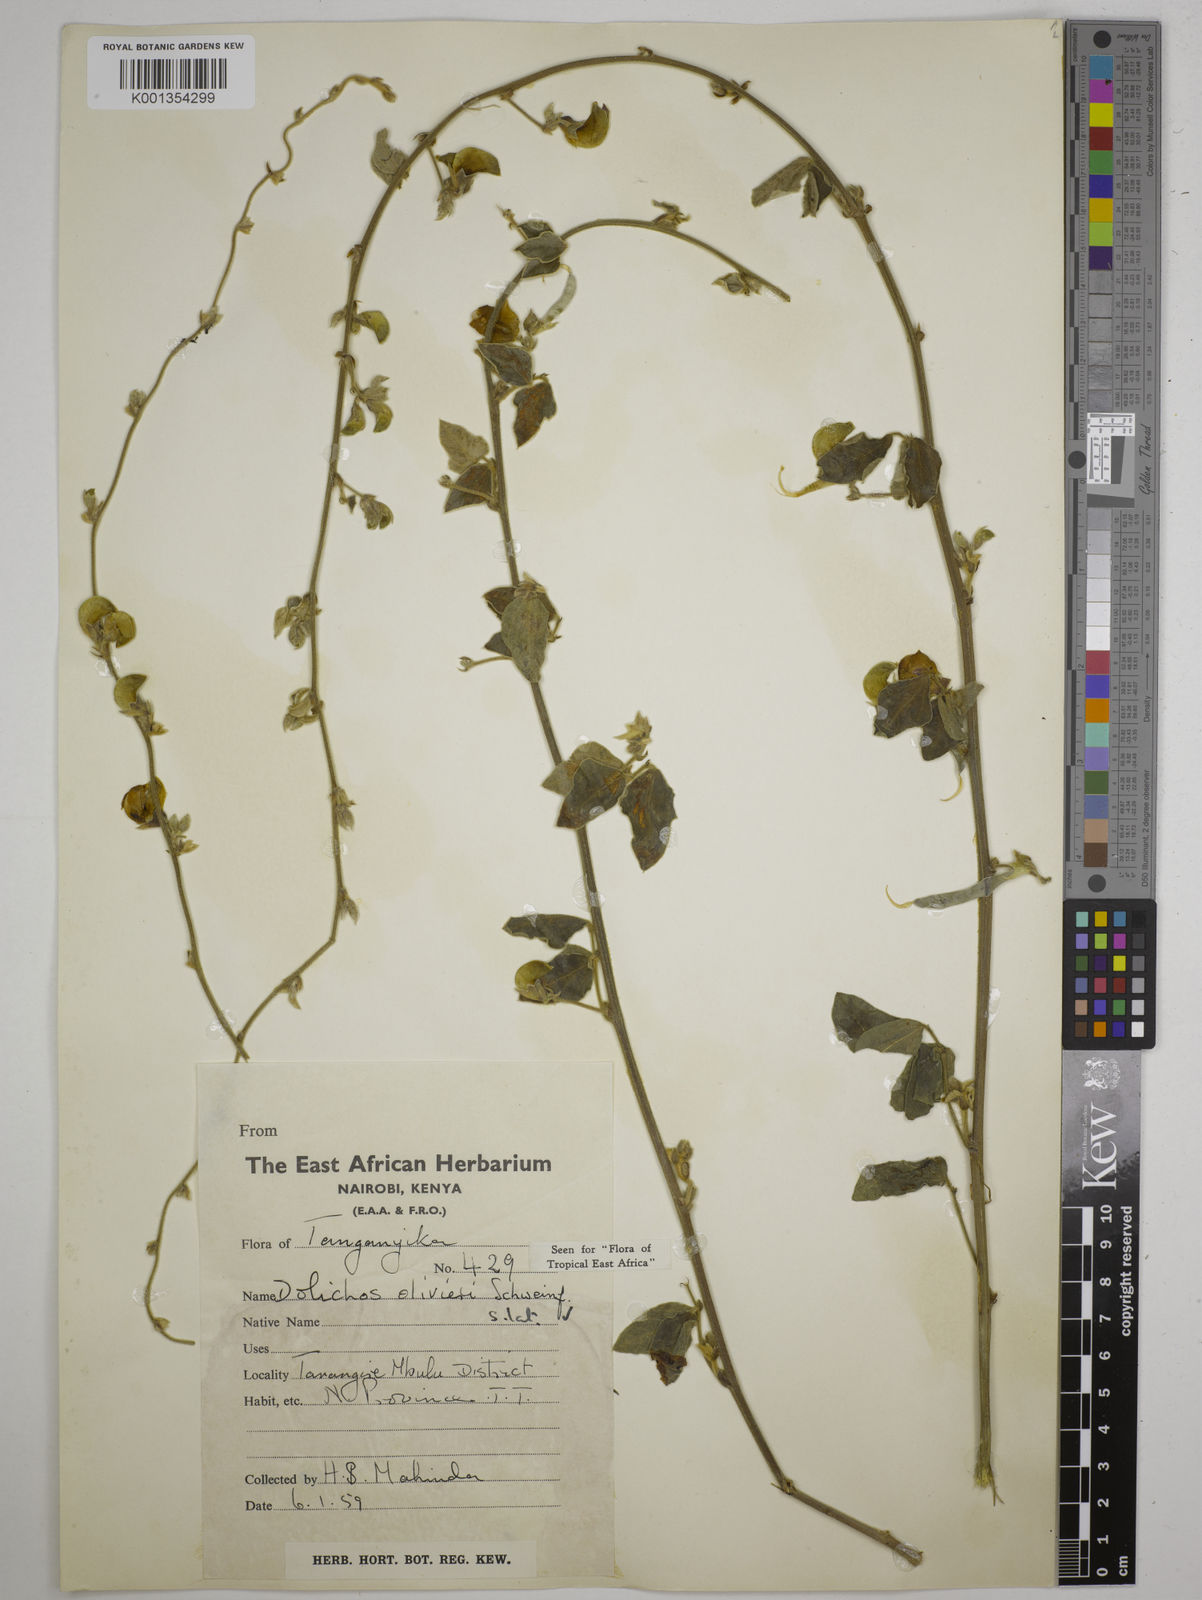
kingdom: Plantae
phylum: Tracheophyta
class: Magnoliopsida
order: Fabales
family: Fabaceae
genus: Dolichos
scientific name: Dolichos oliveri
